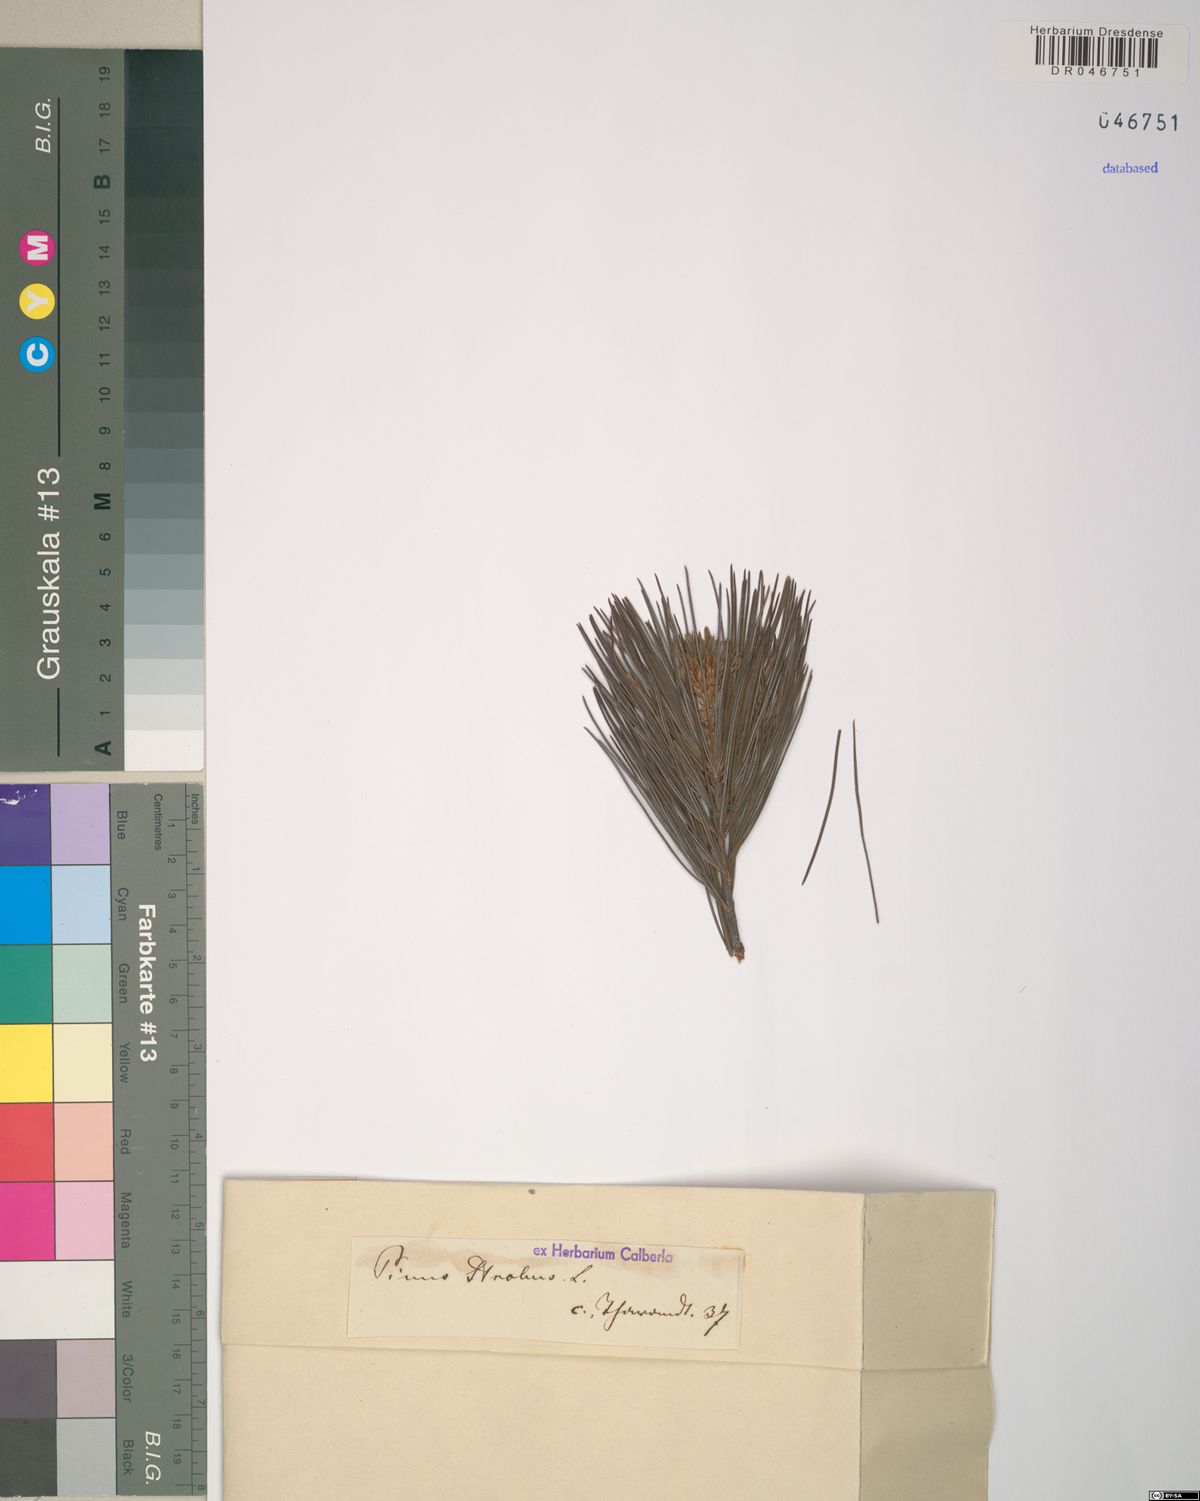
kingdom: Plantae
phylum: Tracheophyta
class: Pinopsida
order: Pinales
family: Pinaceae
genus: Pinus
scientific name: Pinus strobus
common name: Weymouth pine
